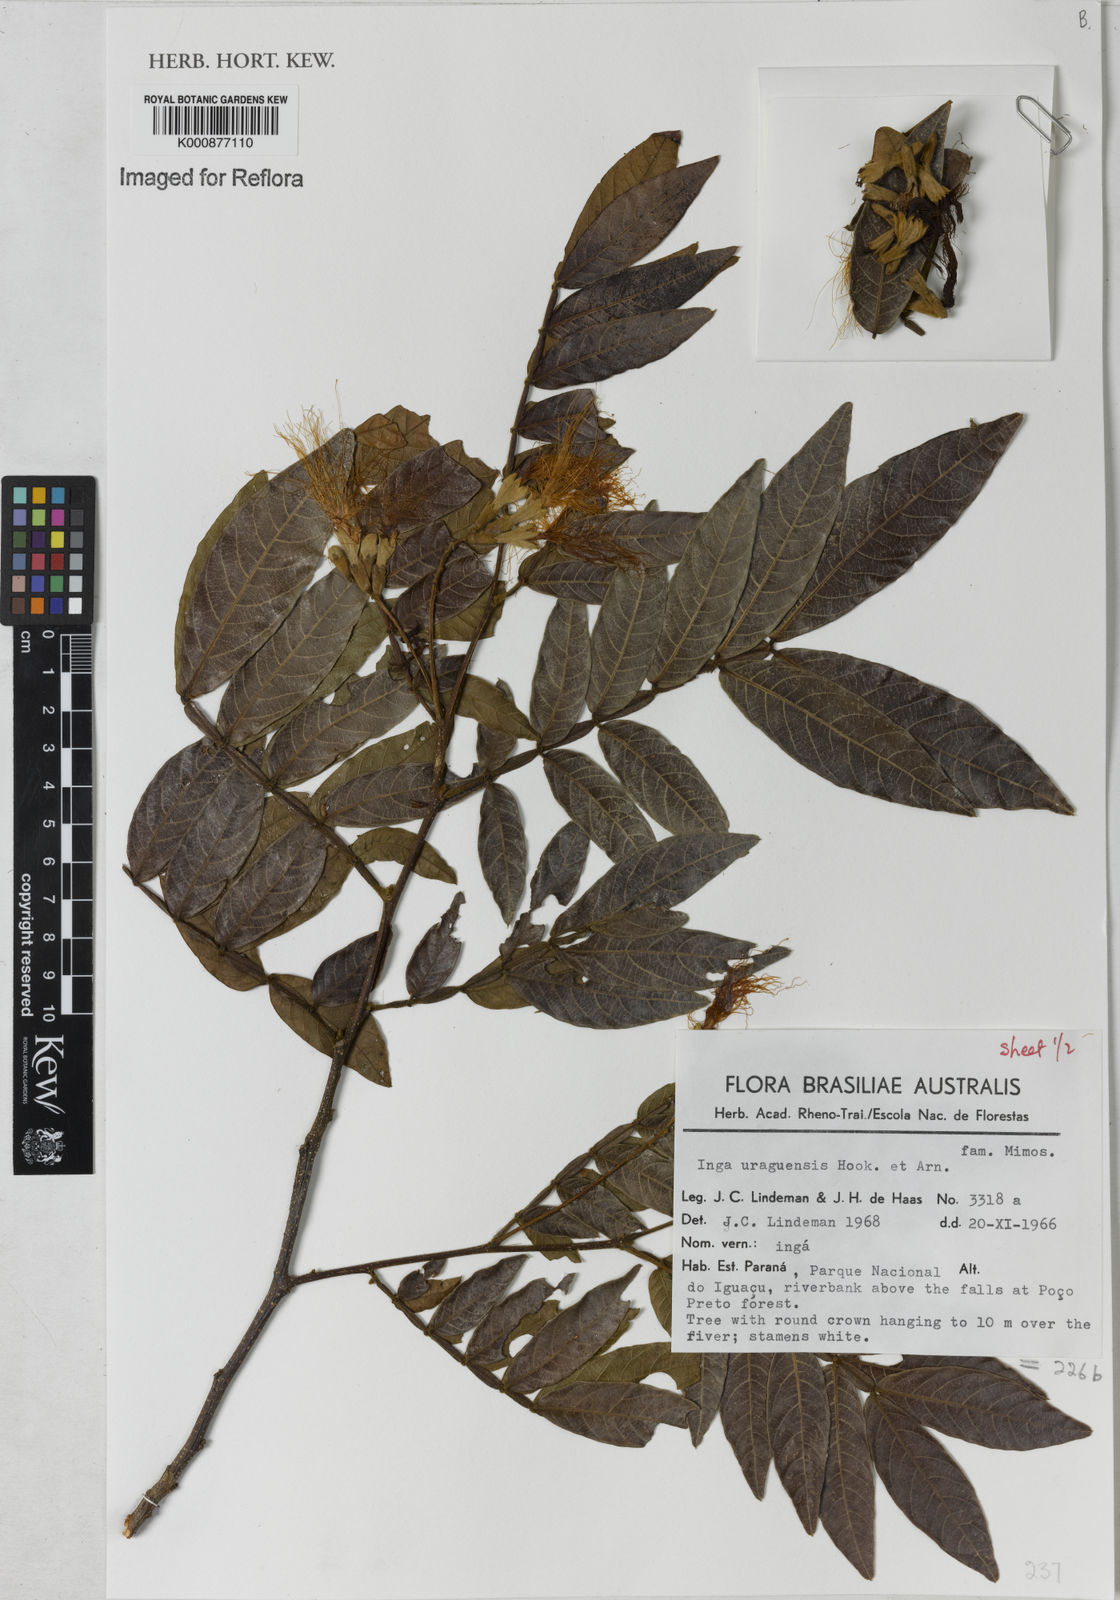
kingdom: Plantae
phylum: Tracheophyta
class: Magnoliopsida
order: Fabales
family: Fabaceae
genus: Inga
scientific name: Inga affinis
